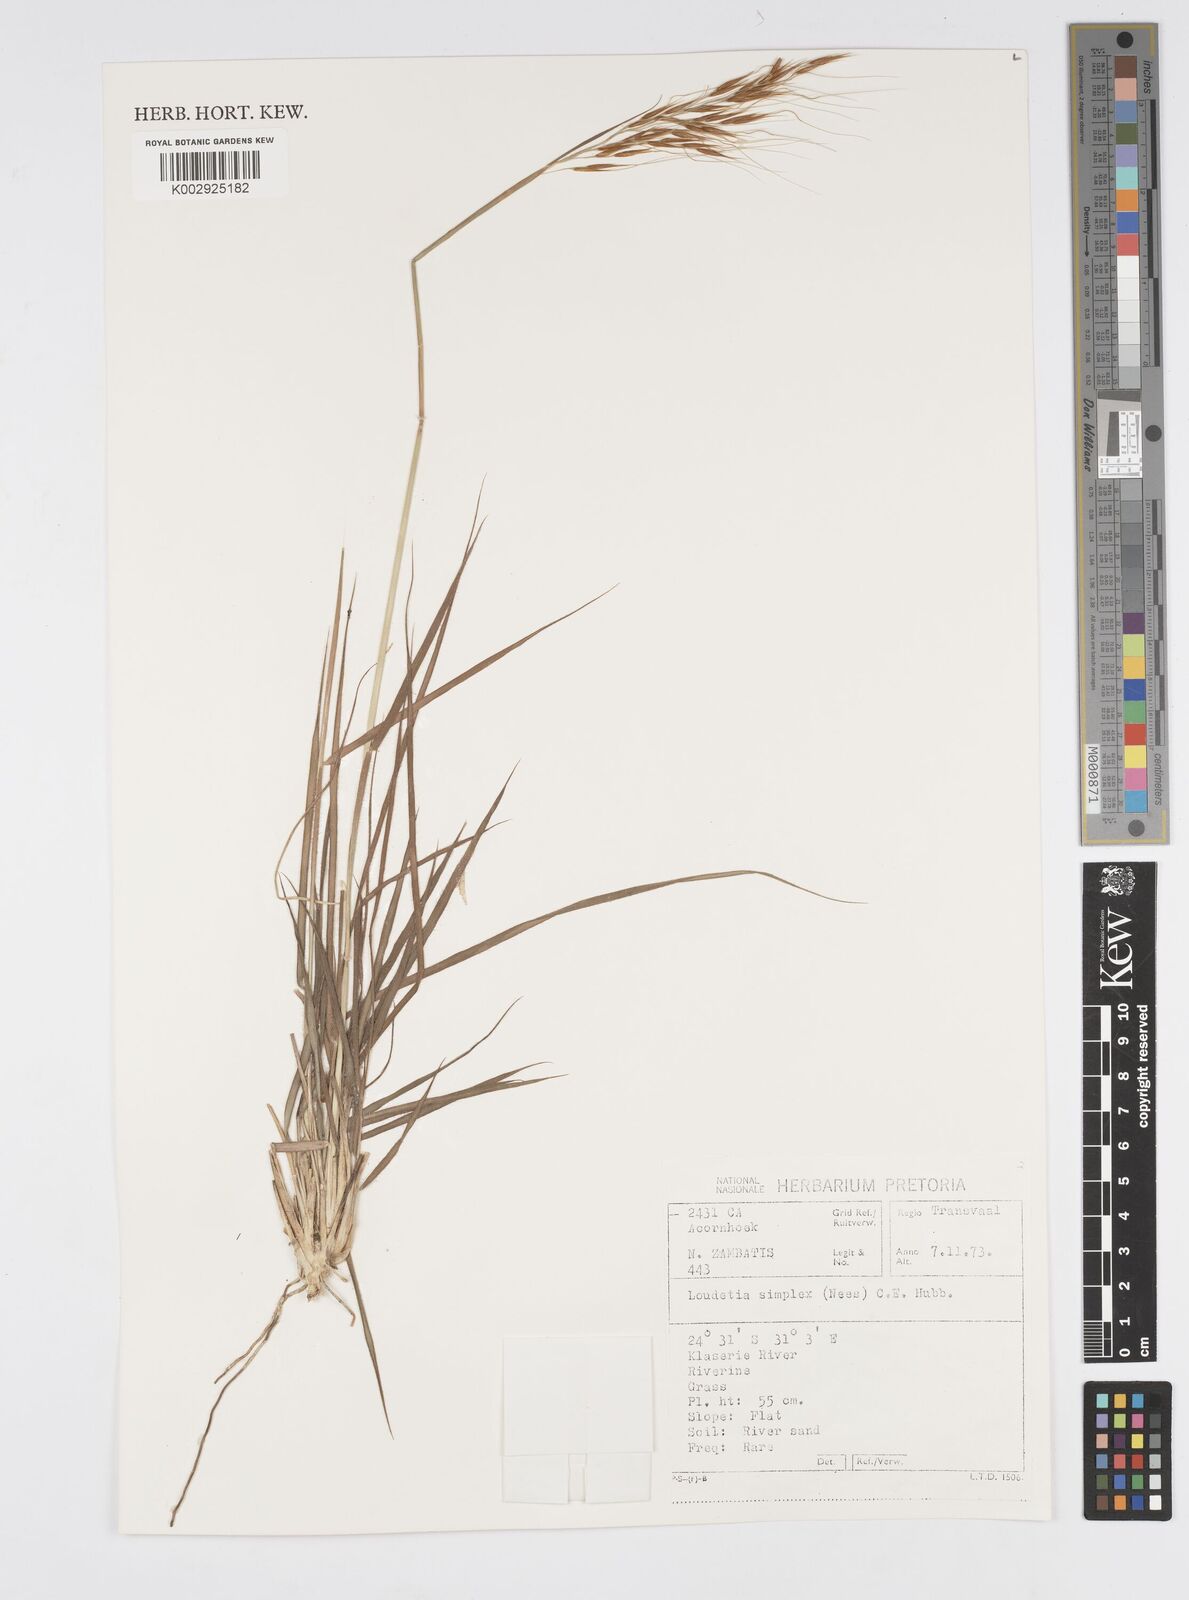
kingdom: Plantae
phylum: Tracheophyta
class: Liliopsida
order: Poales
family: Poaceae
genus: Loudetia
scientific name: Loudetia simplex
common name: Common russet grass
